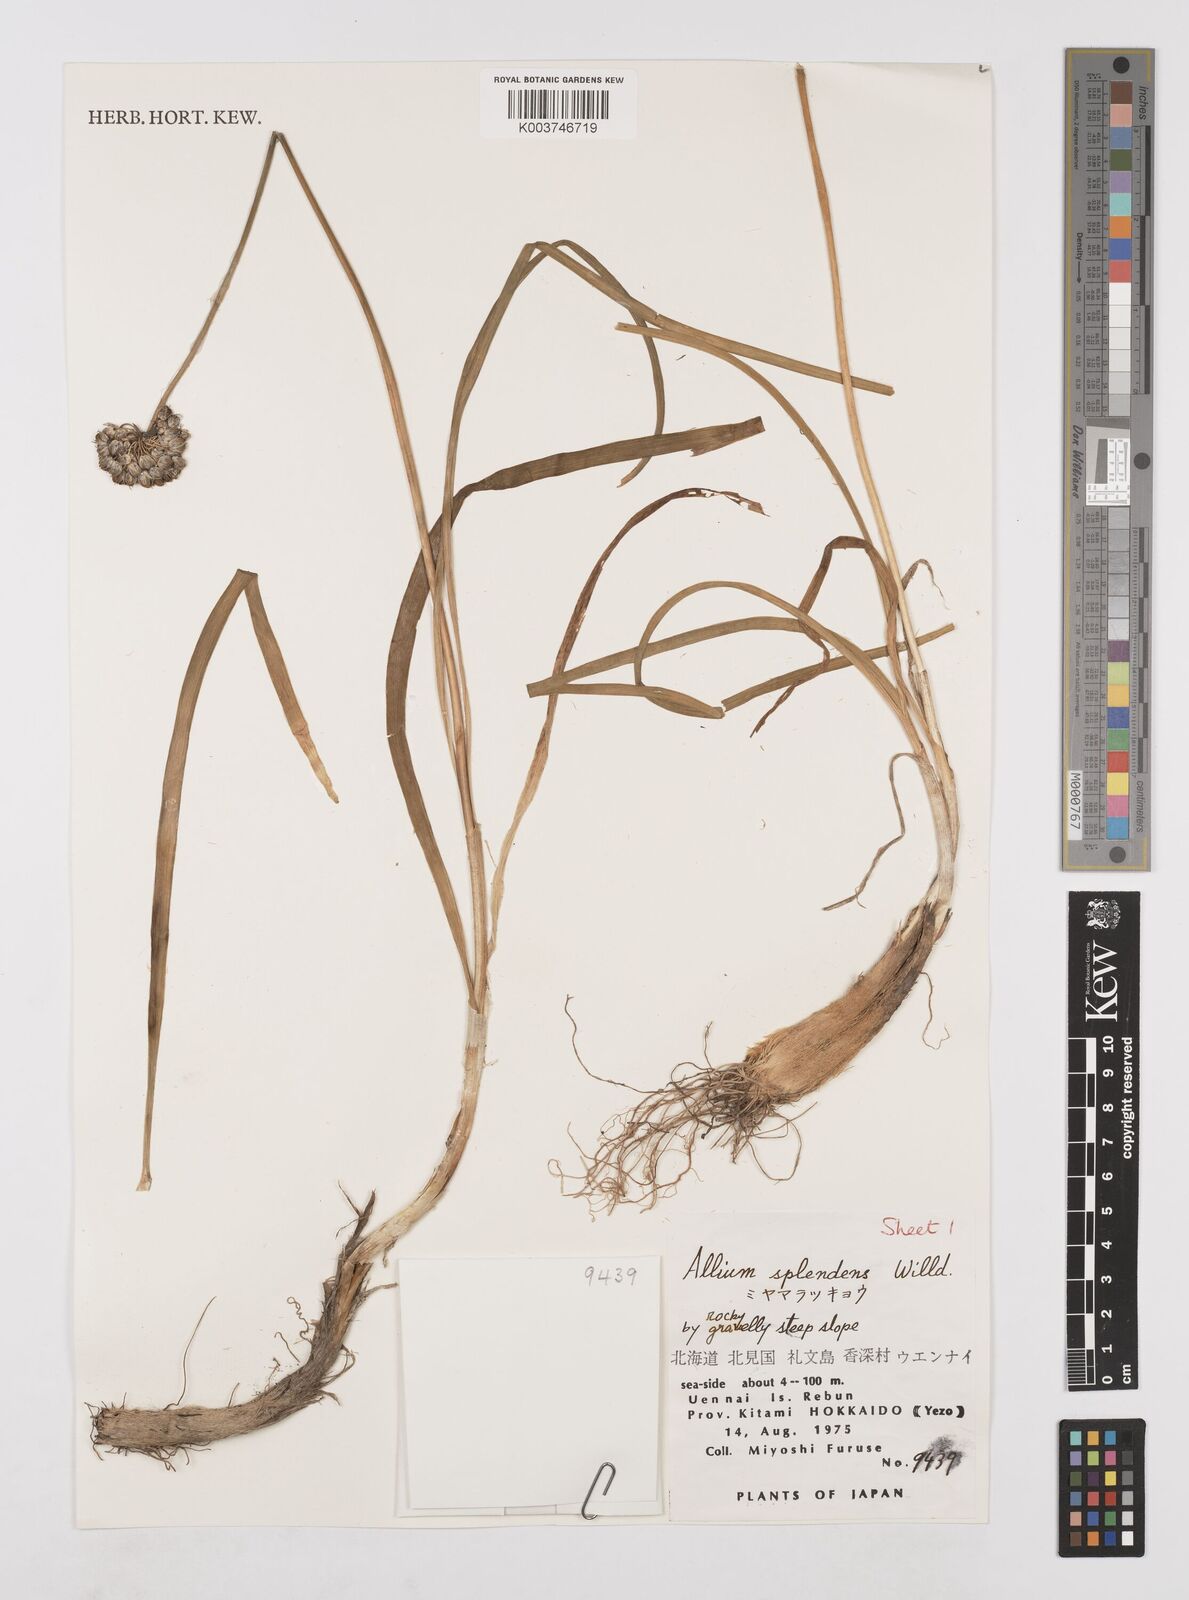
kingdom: Plantae
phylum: Tracheophyta
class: Liliopsida
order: Asparagales
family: Amaryllidaceae
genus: Allium
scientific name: Allium splendens
